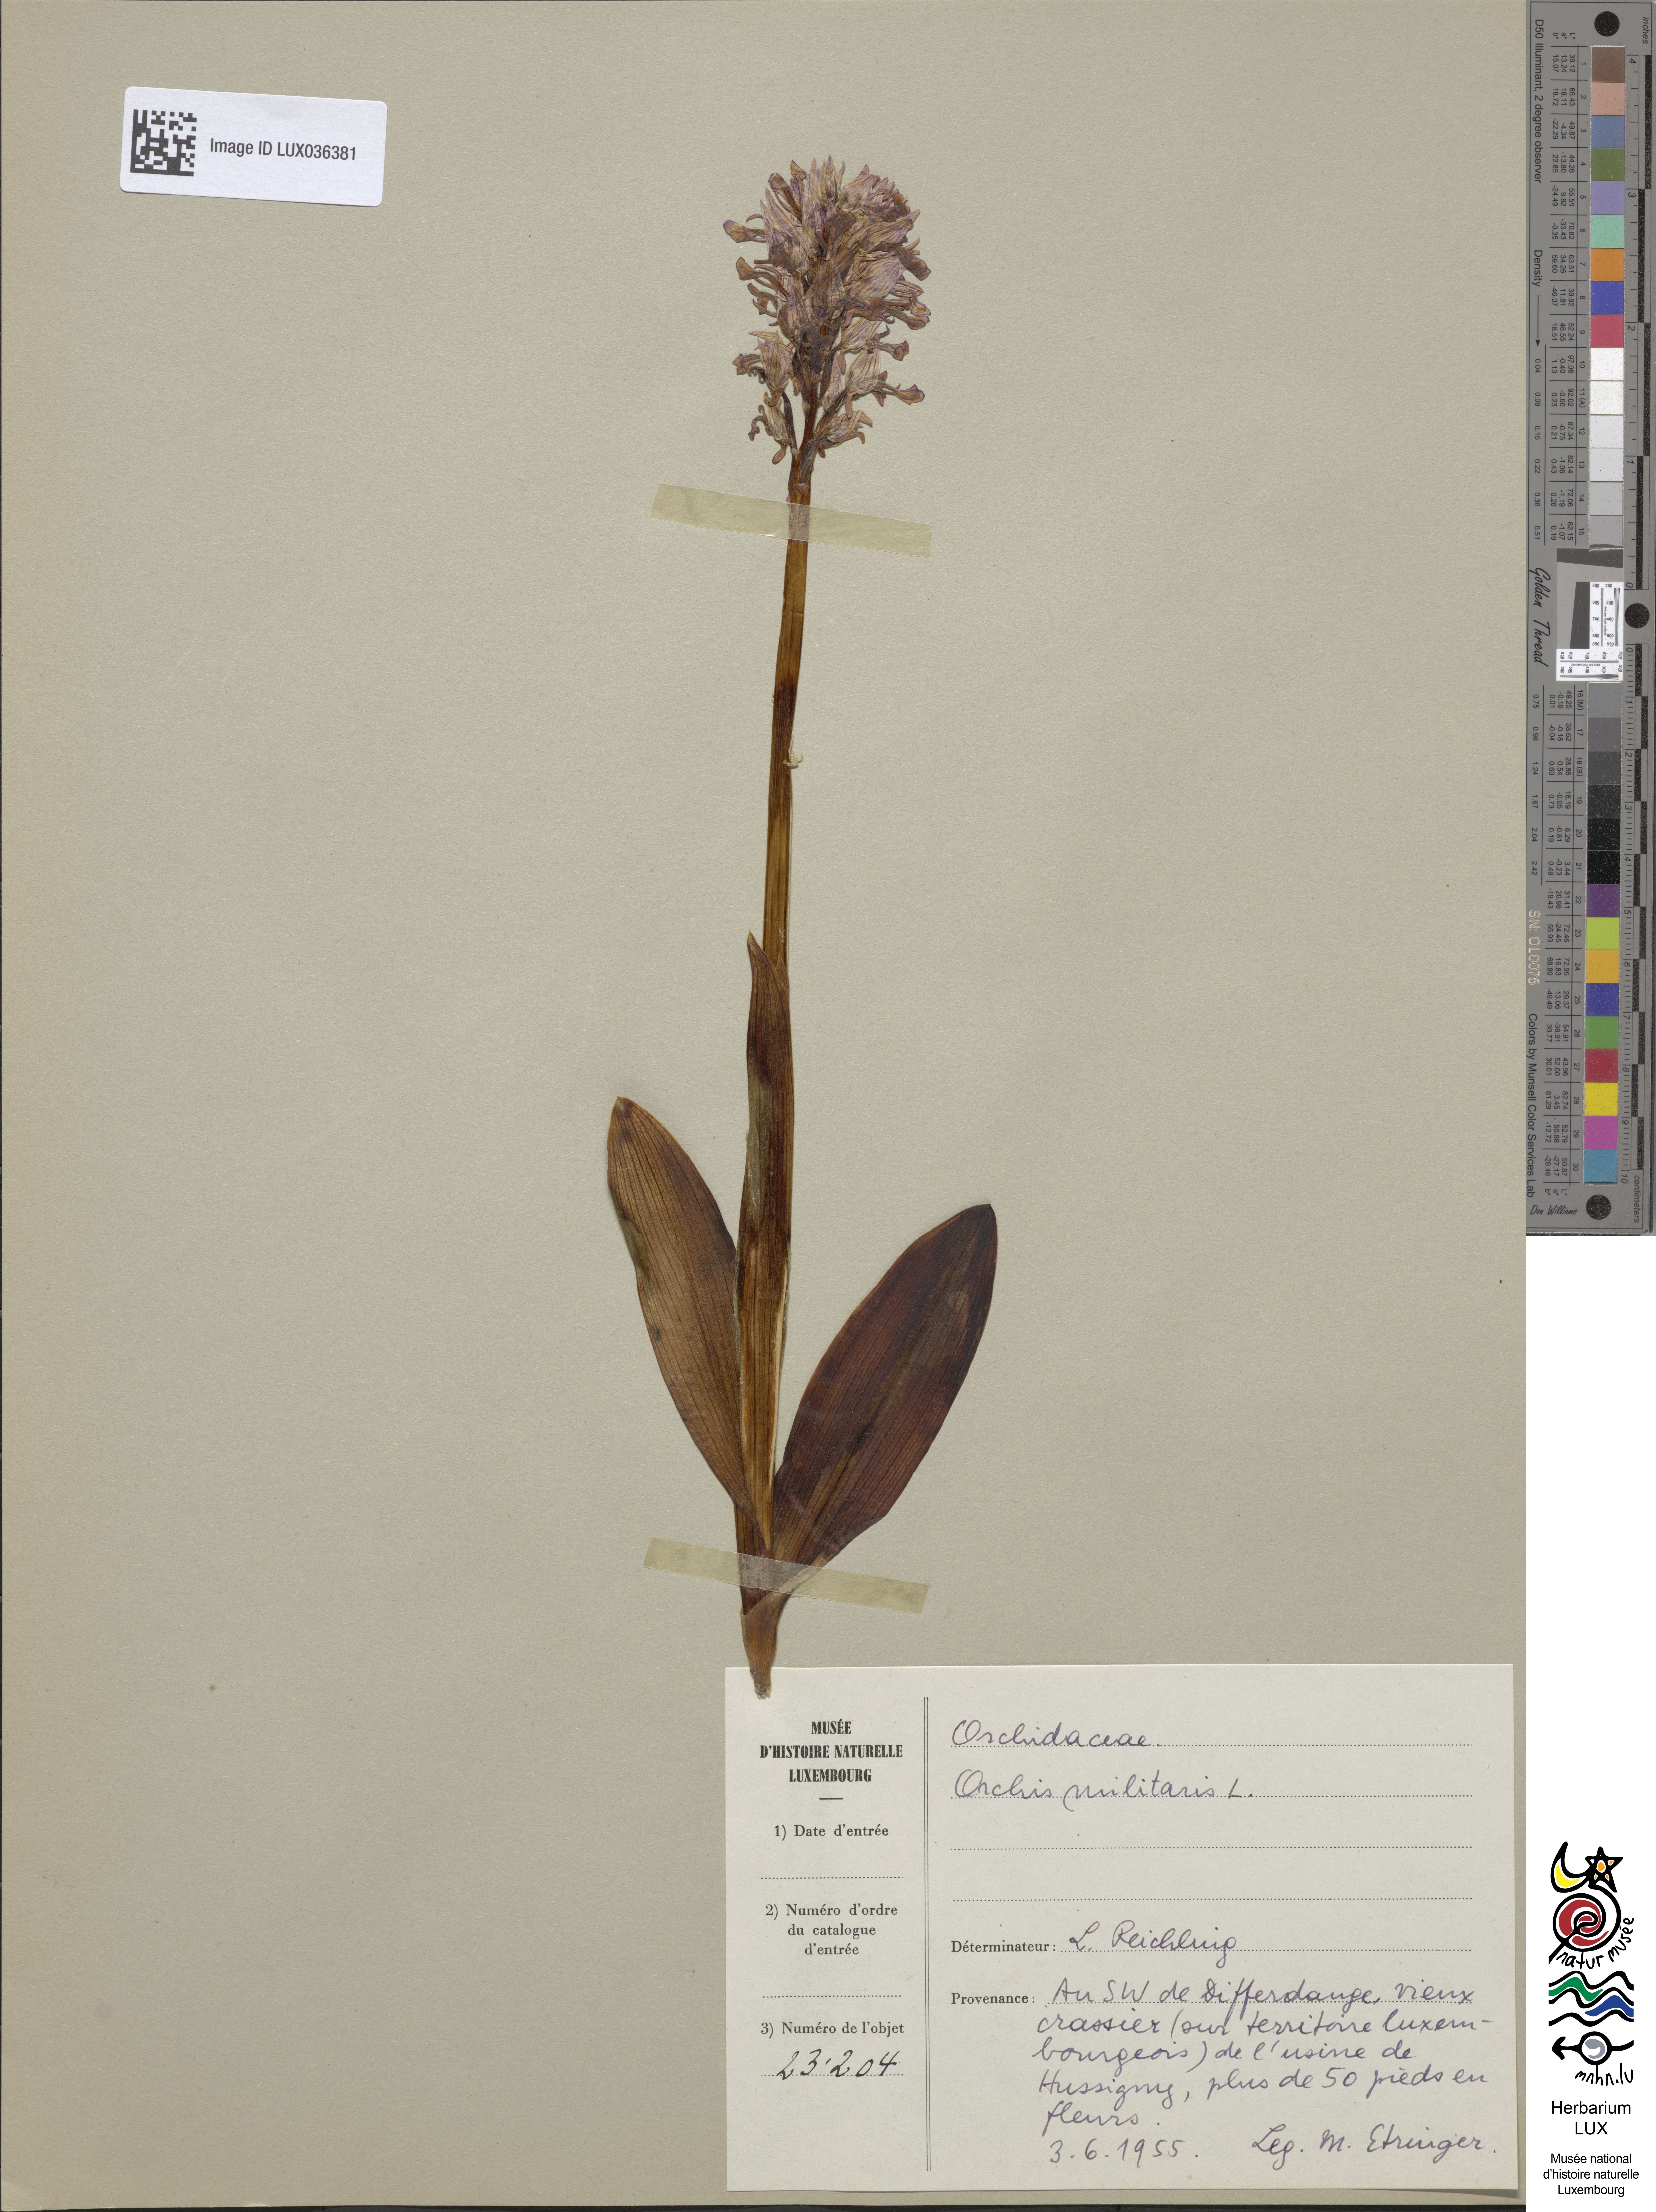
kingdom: Plantae
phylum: Tracheophyta
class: Liliopsida
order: Asparagales
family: Orchidaceae
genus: Orchis
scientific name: Orchis militaris
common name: Military orchid
